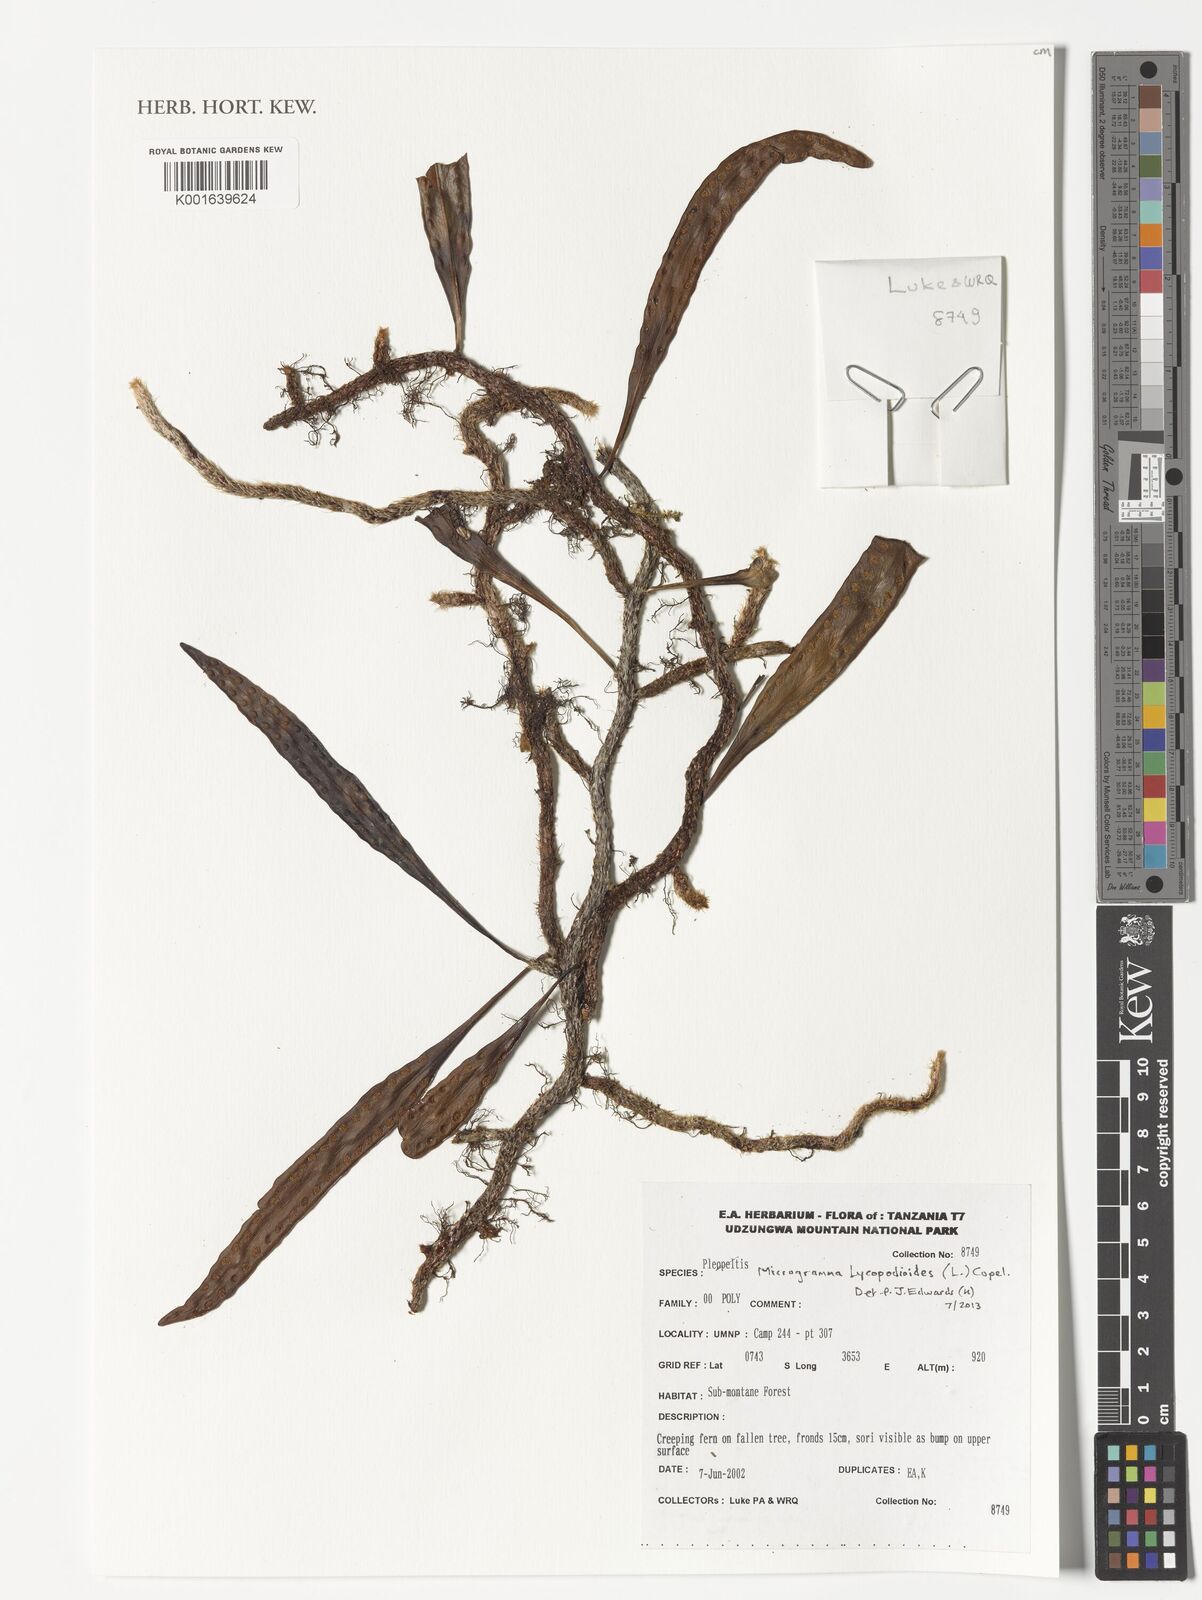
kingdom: Plantae
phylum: Tracheophyta
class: Polypodiopsida
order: Polypodiales
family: Polypodiaceae
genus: Microgramma
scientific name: Microgramma lycopodioides
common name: Bastard catclaw
